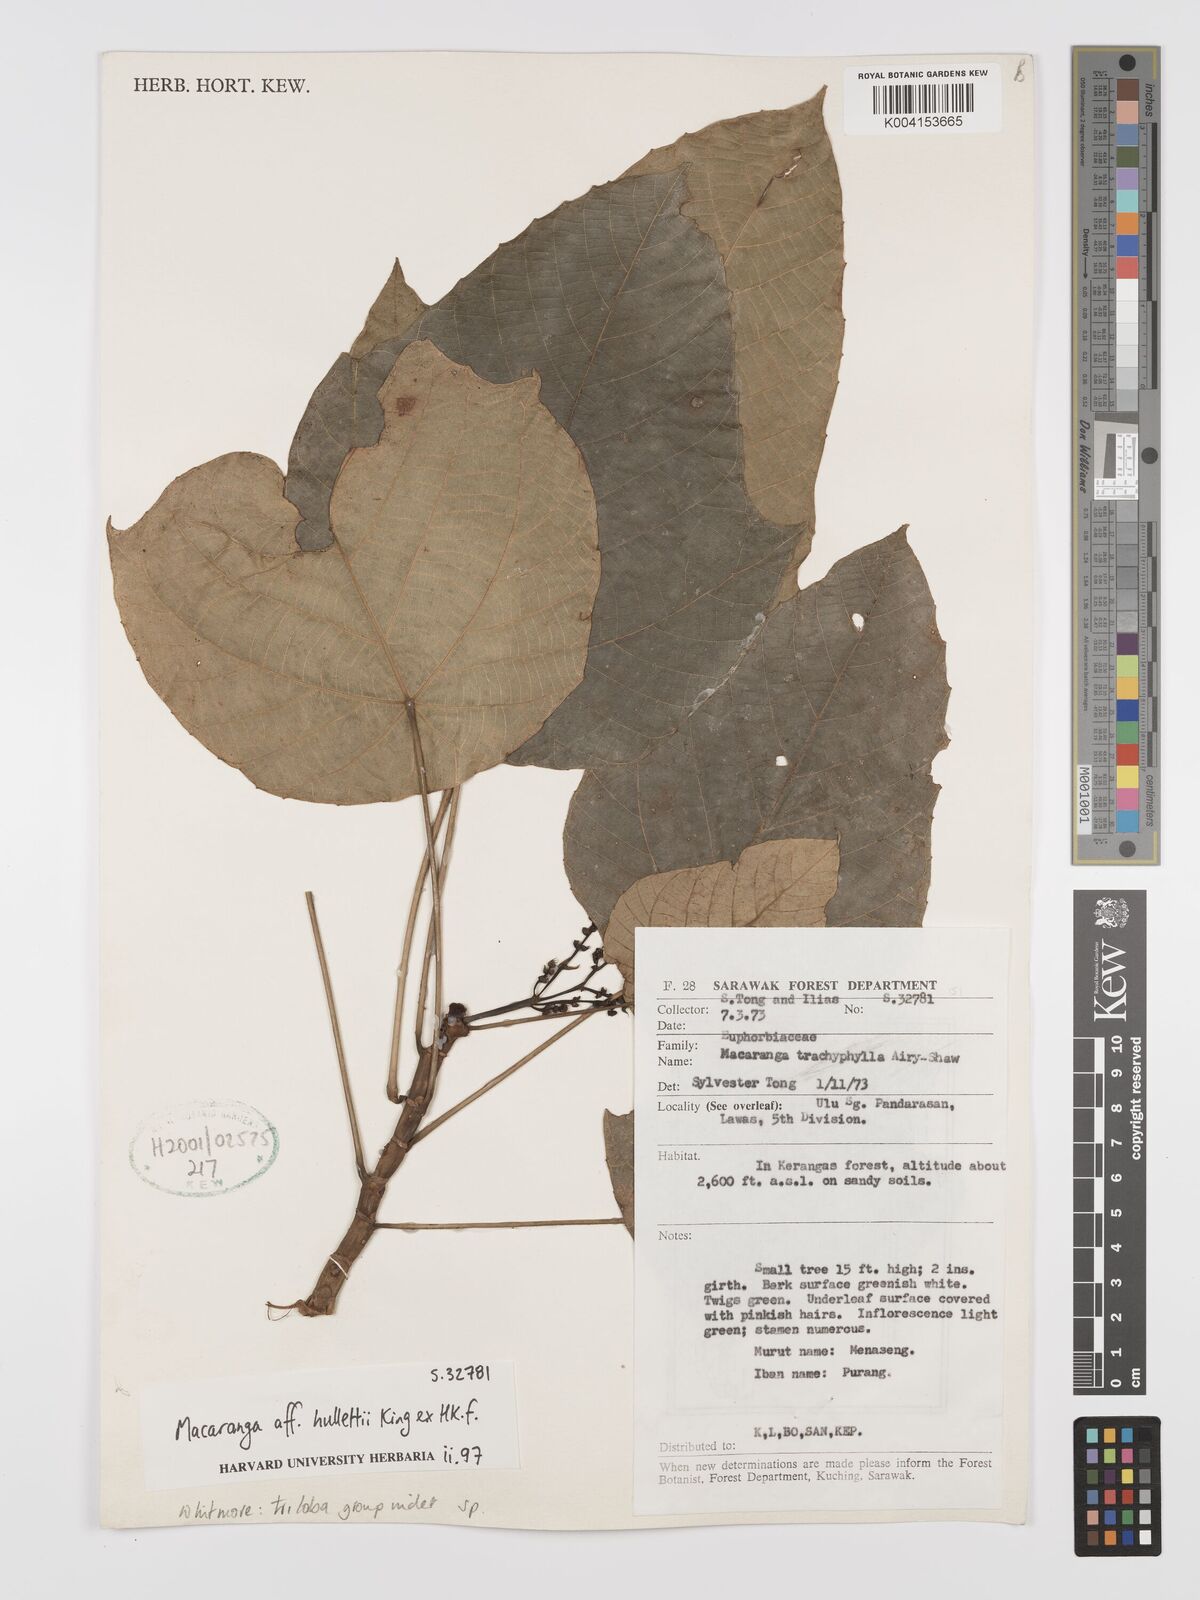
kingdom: Plantae
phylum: Tracheophyta
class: Magnoliopsida
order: Malpighiales
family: Euphorbiaceae
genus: Macaranga
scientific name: Macaranga triloba
